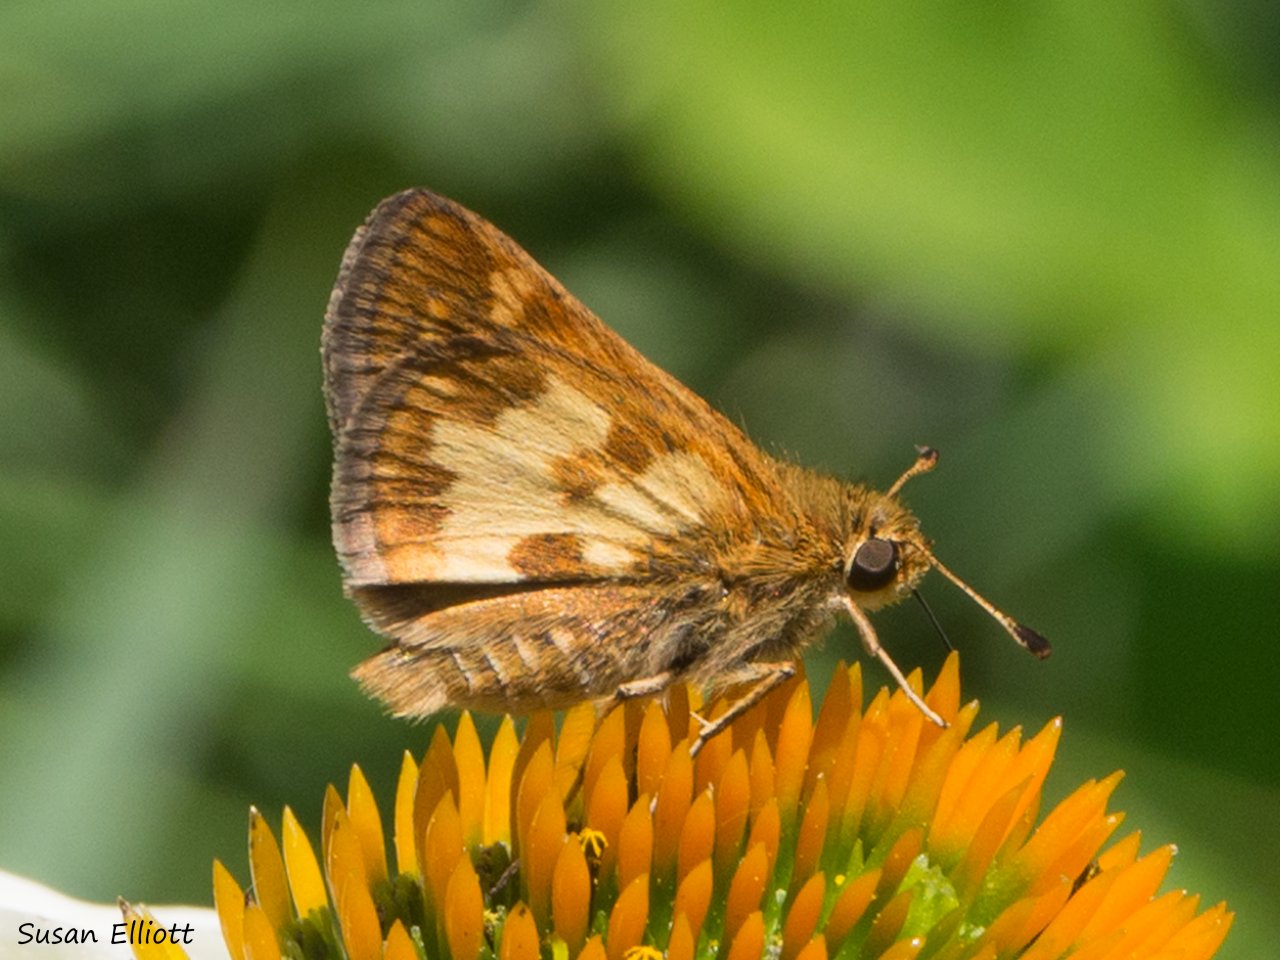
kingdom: Animalia
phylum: Arthropoda
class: Insecta
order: Lepidoptera
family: Hesperiidae
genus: Polites
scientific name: Polites coras
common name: Peck's Skipper
